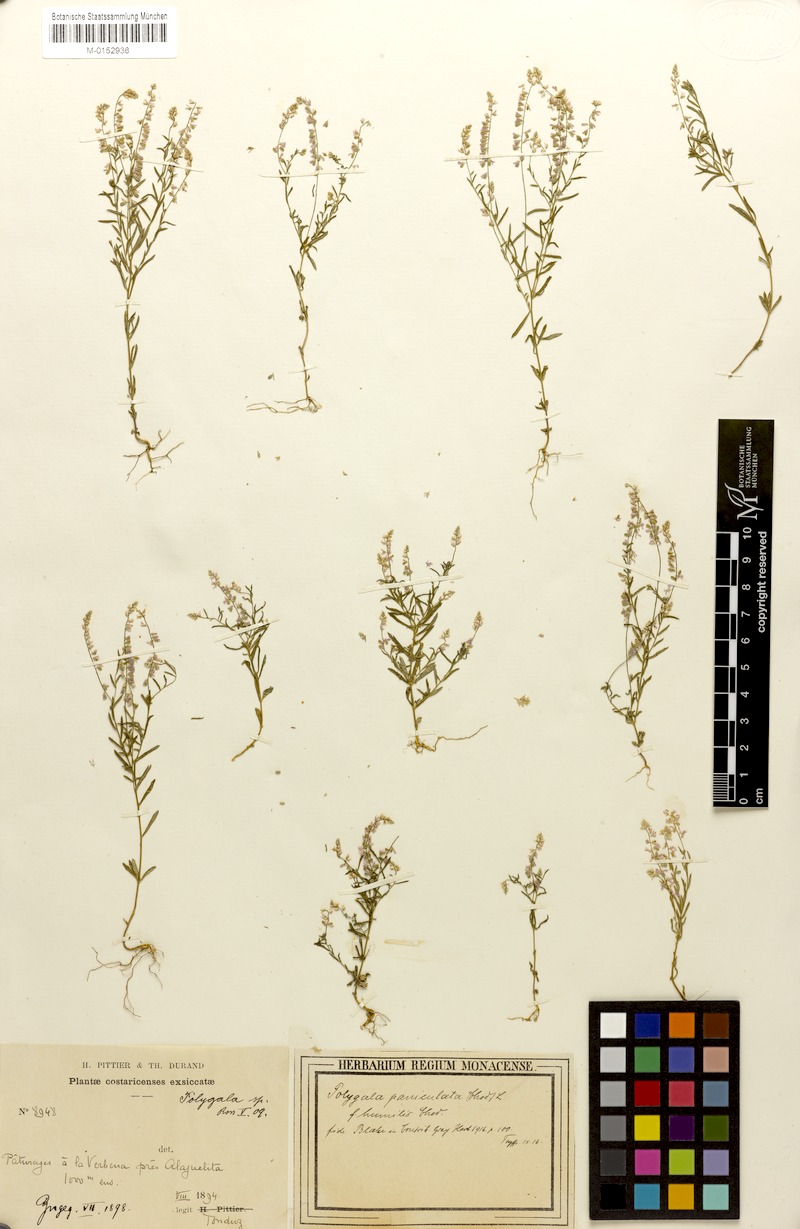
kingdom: Plantae
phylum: Tracheophyta
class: Magnoliopsida
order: Fabales
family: Polygalaceae
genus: Polygala
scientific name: Polygala paniculata
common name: Orosne
